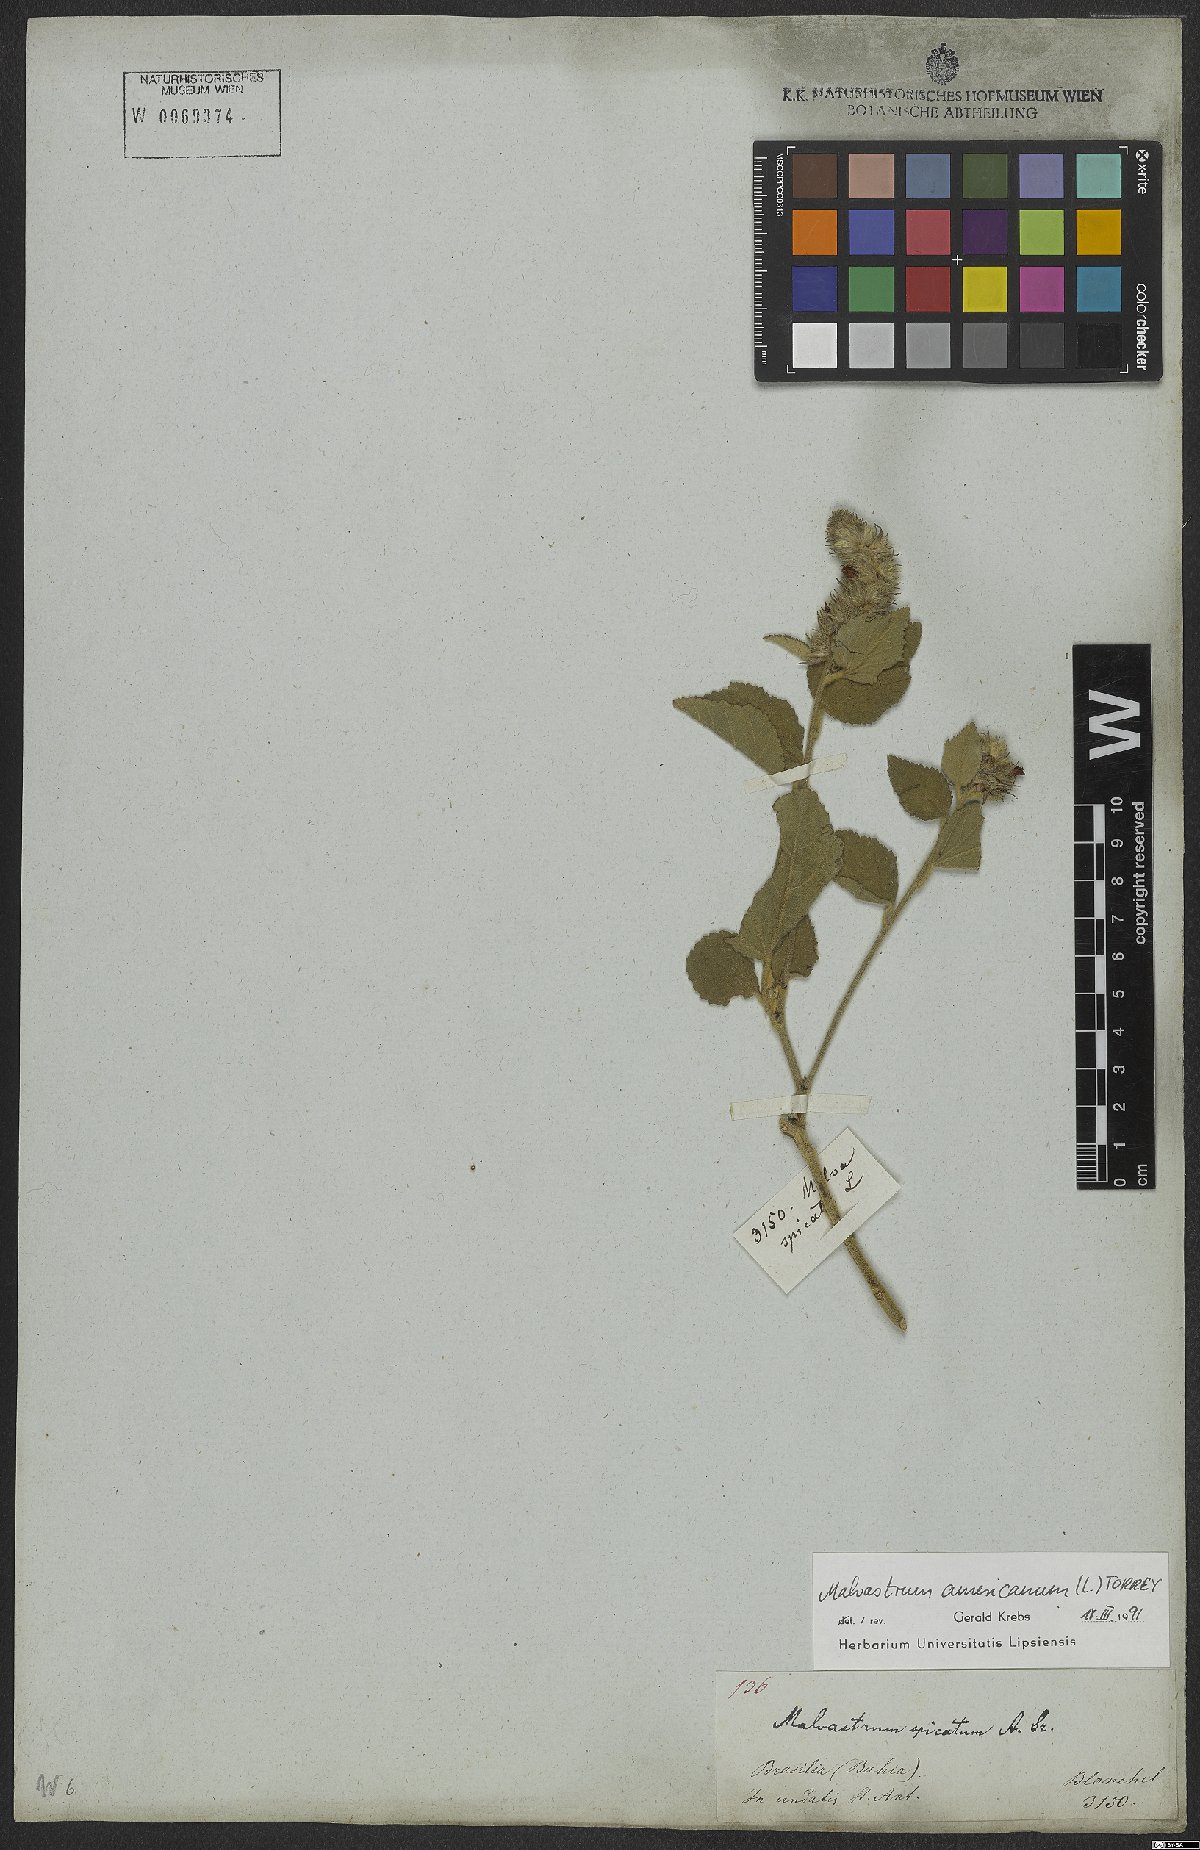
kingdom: Plantae
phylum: Tracheophyta
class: Magnoliopsida
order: Malvales
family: Malvaceae
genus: Malvastrum
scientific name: Malvastrum americanum
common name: Spiked malvastrum
